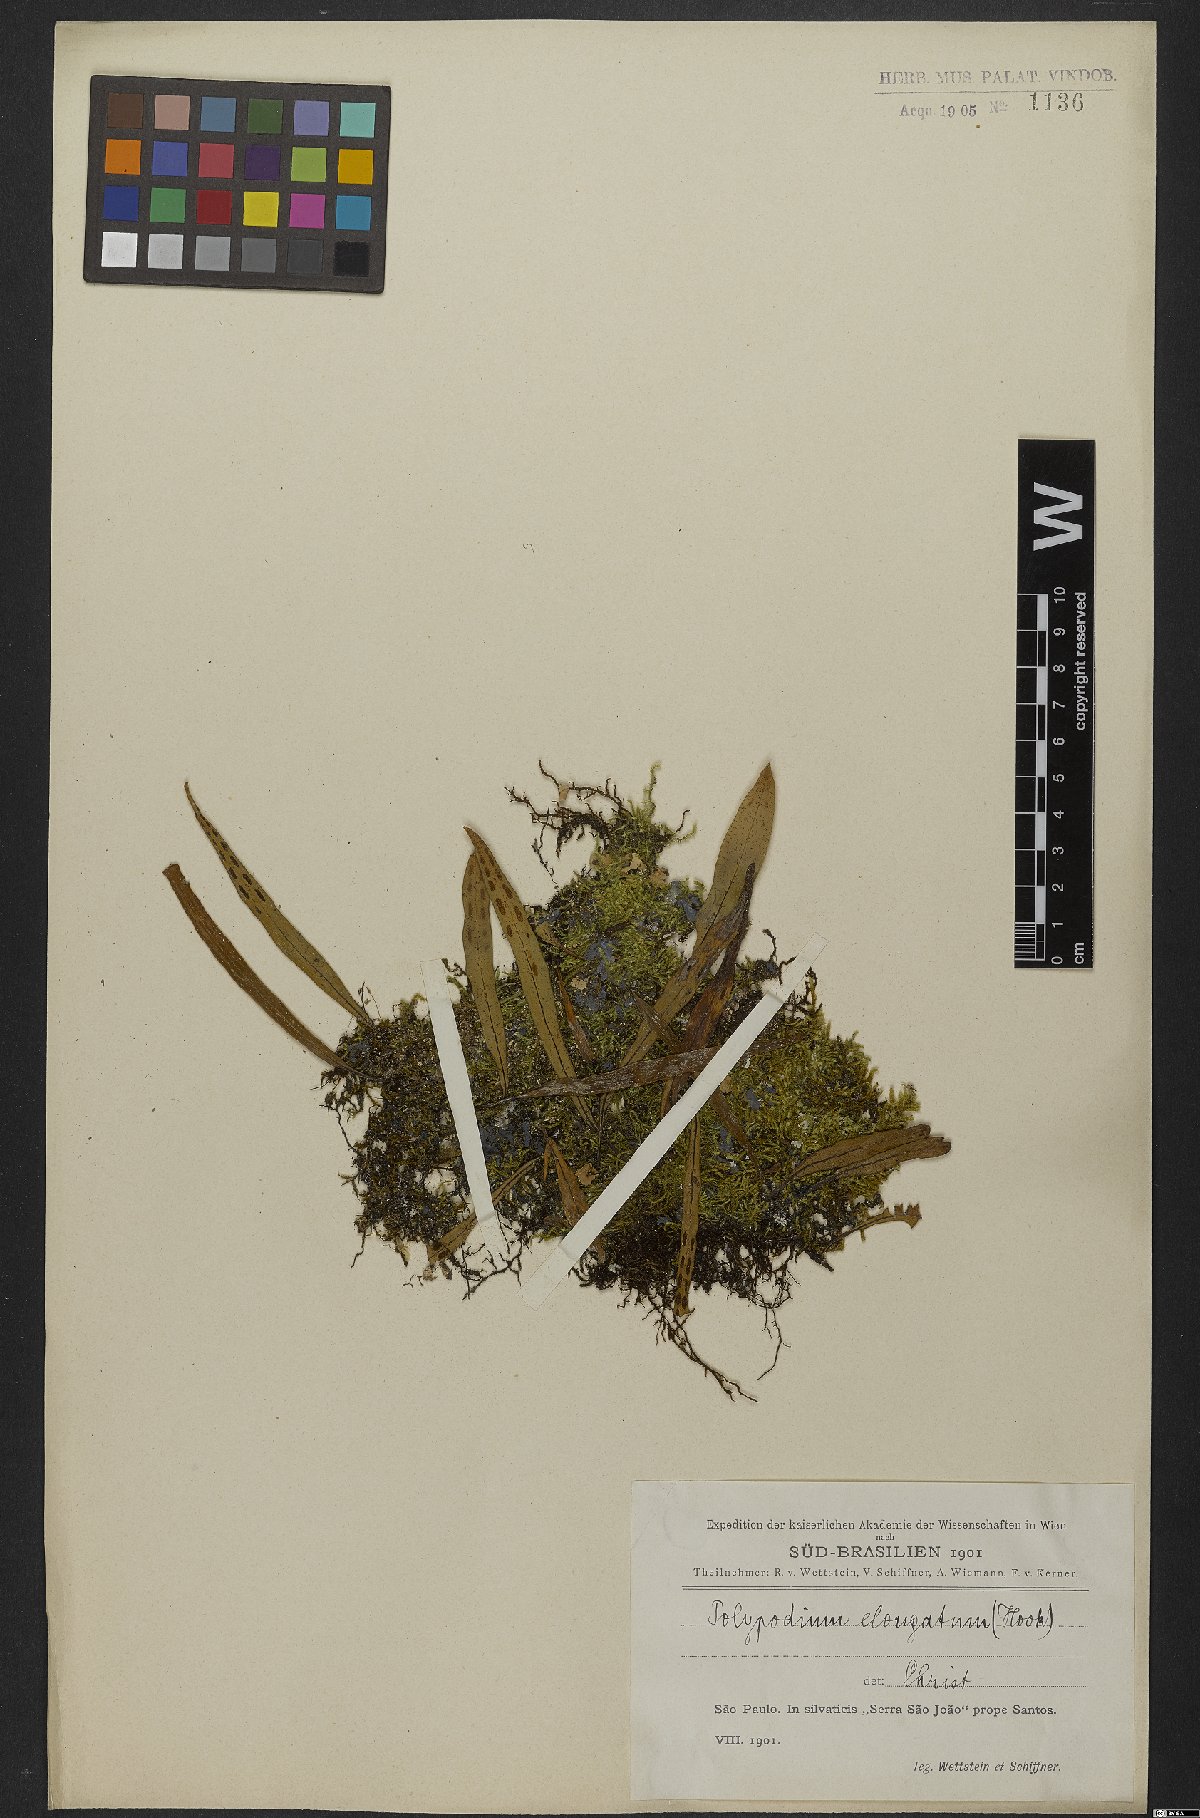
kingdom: Plantae
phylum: Tracheophyta
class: Polypodiopsida
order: Polypodiales
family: Polypodiaceae
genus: Pleopeltis
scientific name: Pleopeltis macrocarpa
